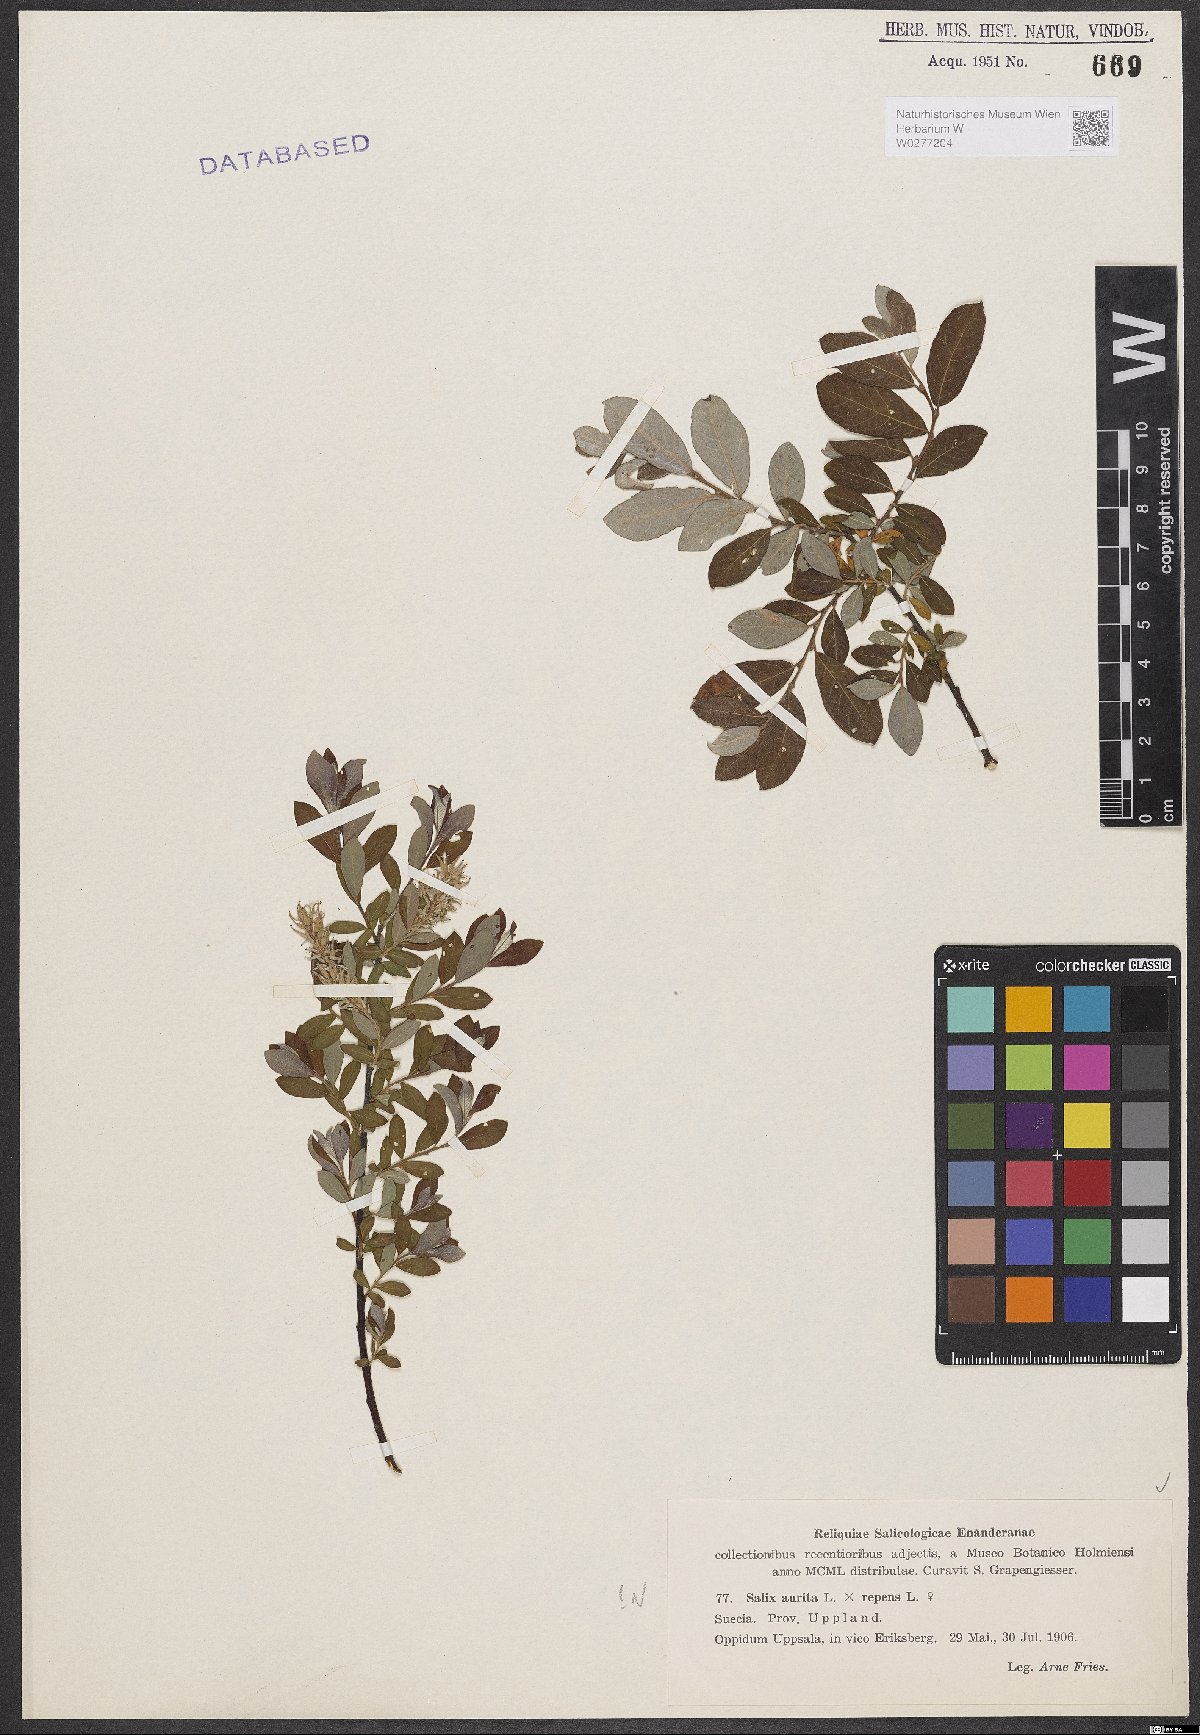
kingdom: Plantae
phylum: Tracheophyta
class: Magnoliopsida
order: Malpighiales
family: Salicaceae
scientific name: Salicaceae
